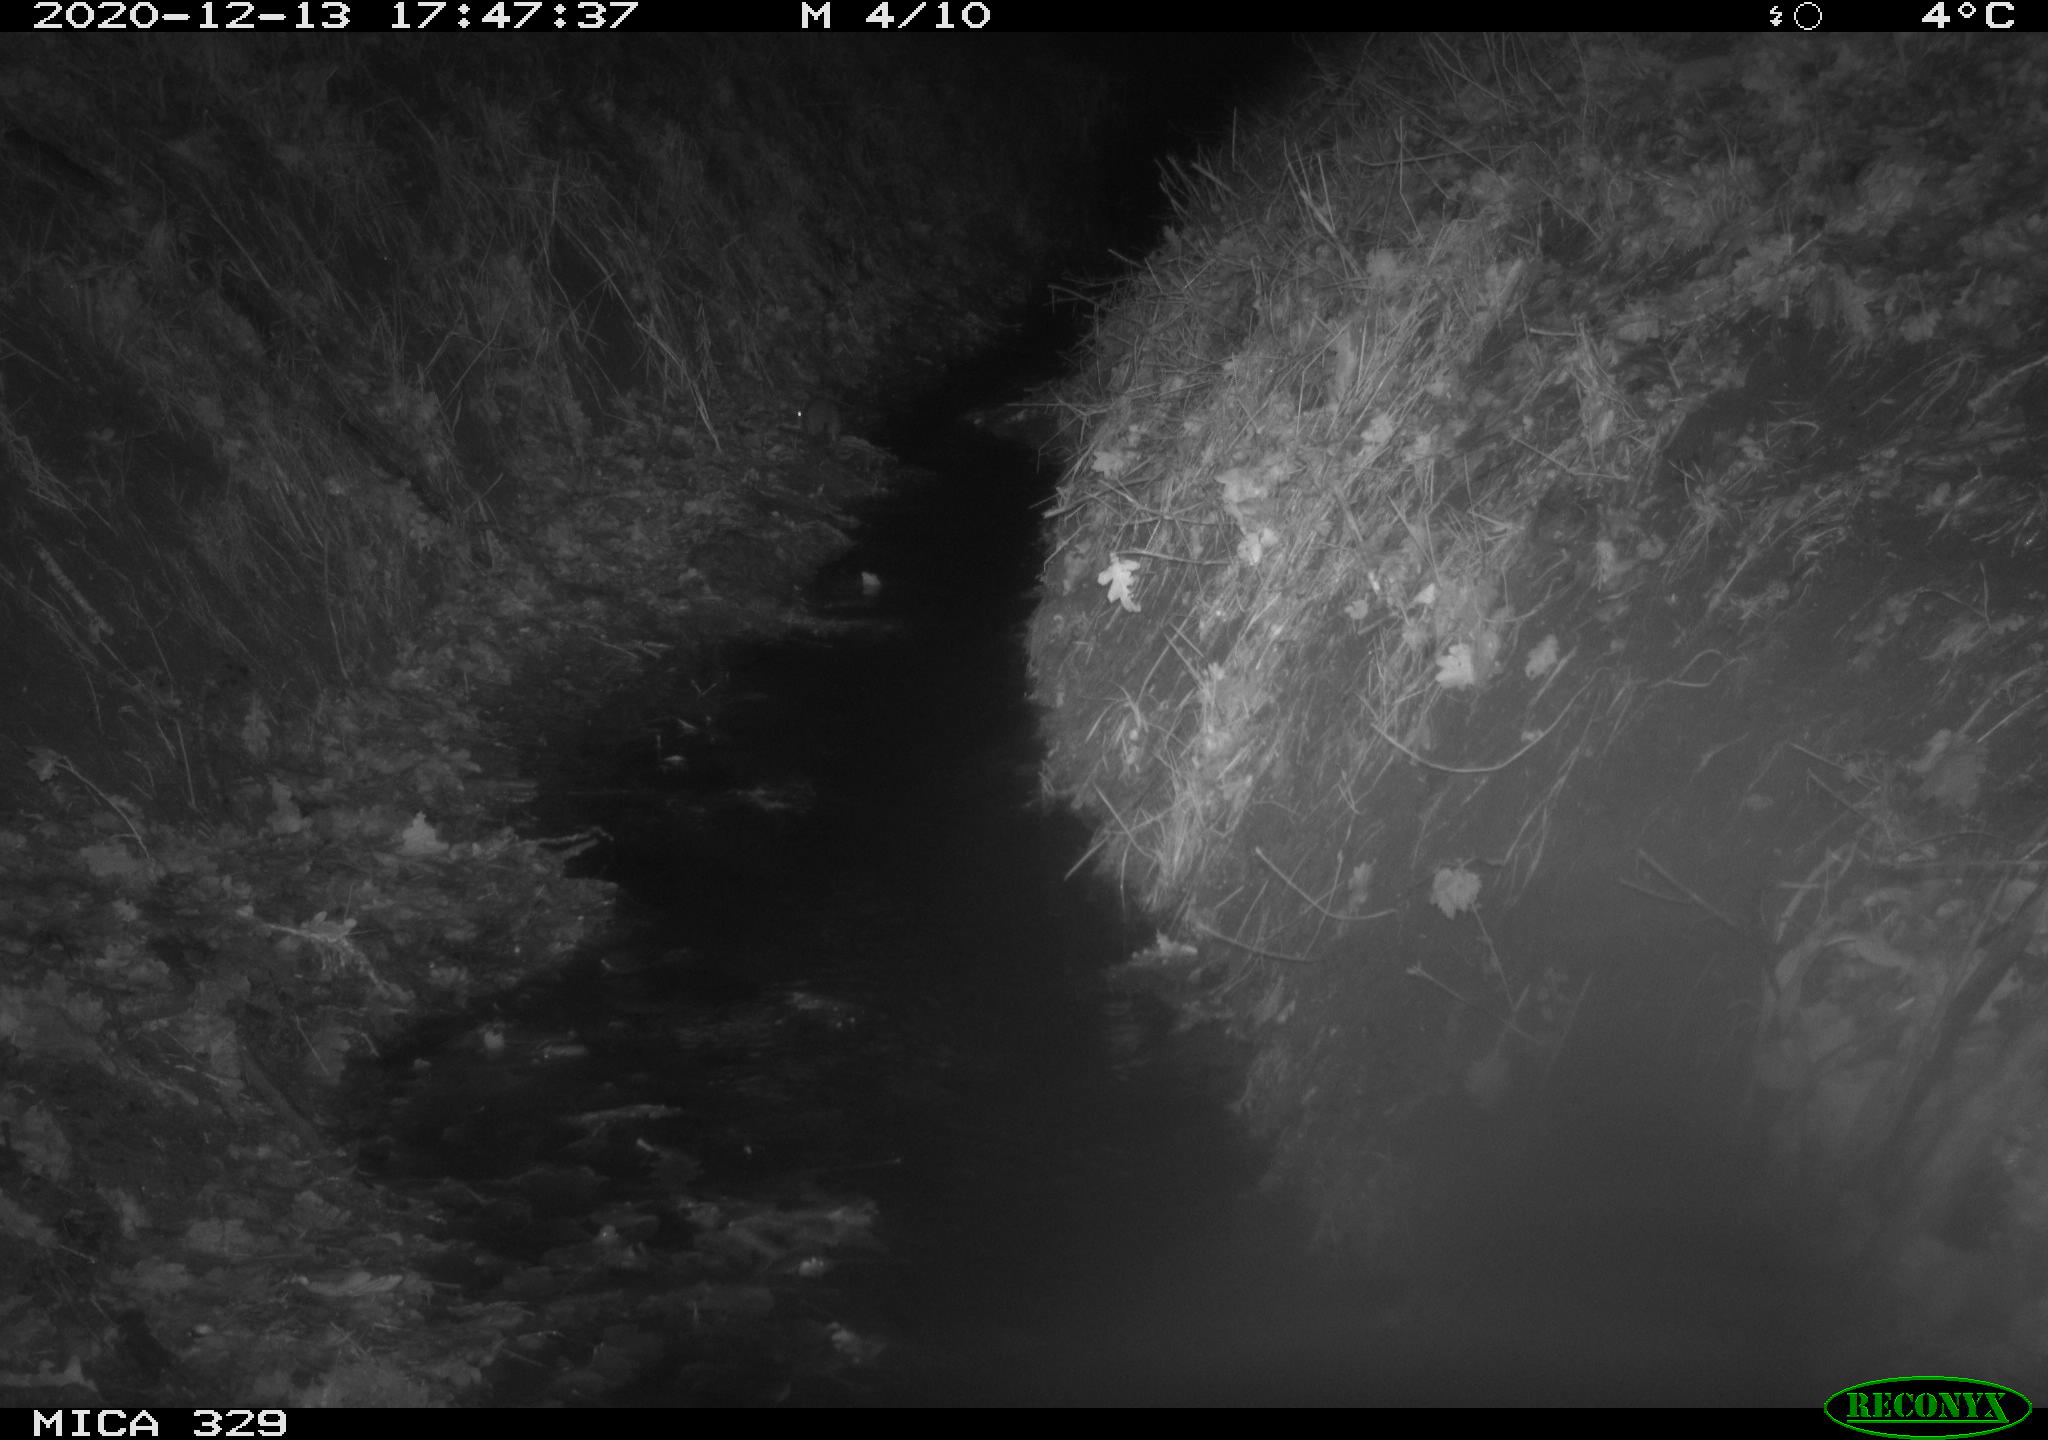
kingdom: Animalia
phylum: Chordata
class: Mammalia
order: Rodentia
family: Muridae
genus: Rattus
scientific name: Rattus norvegicus
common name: Brown rat
